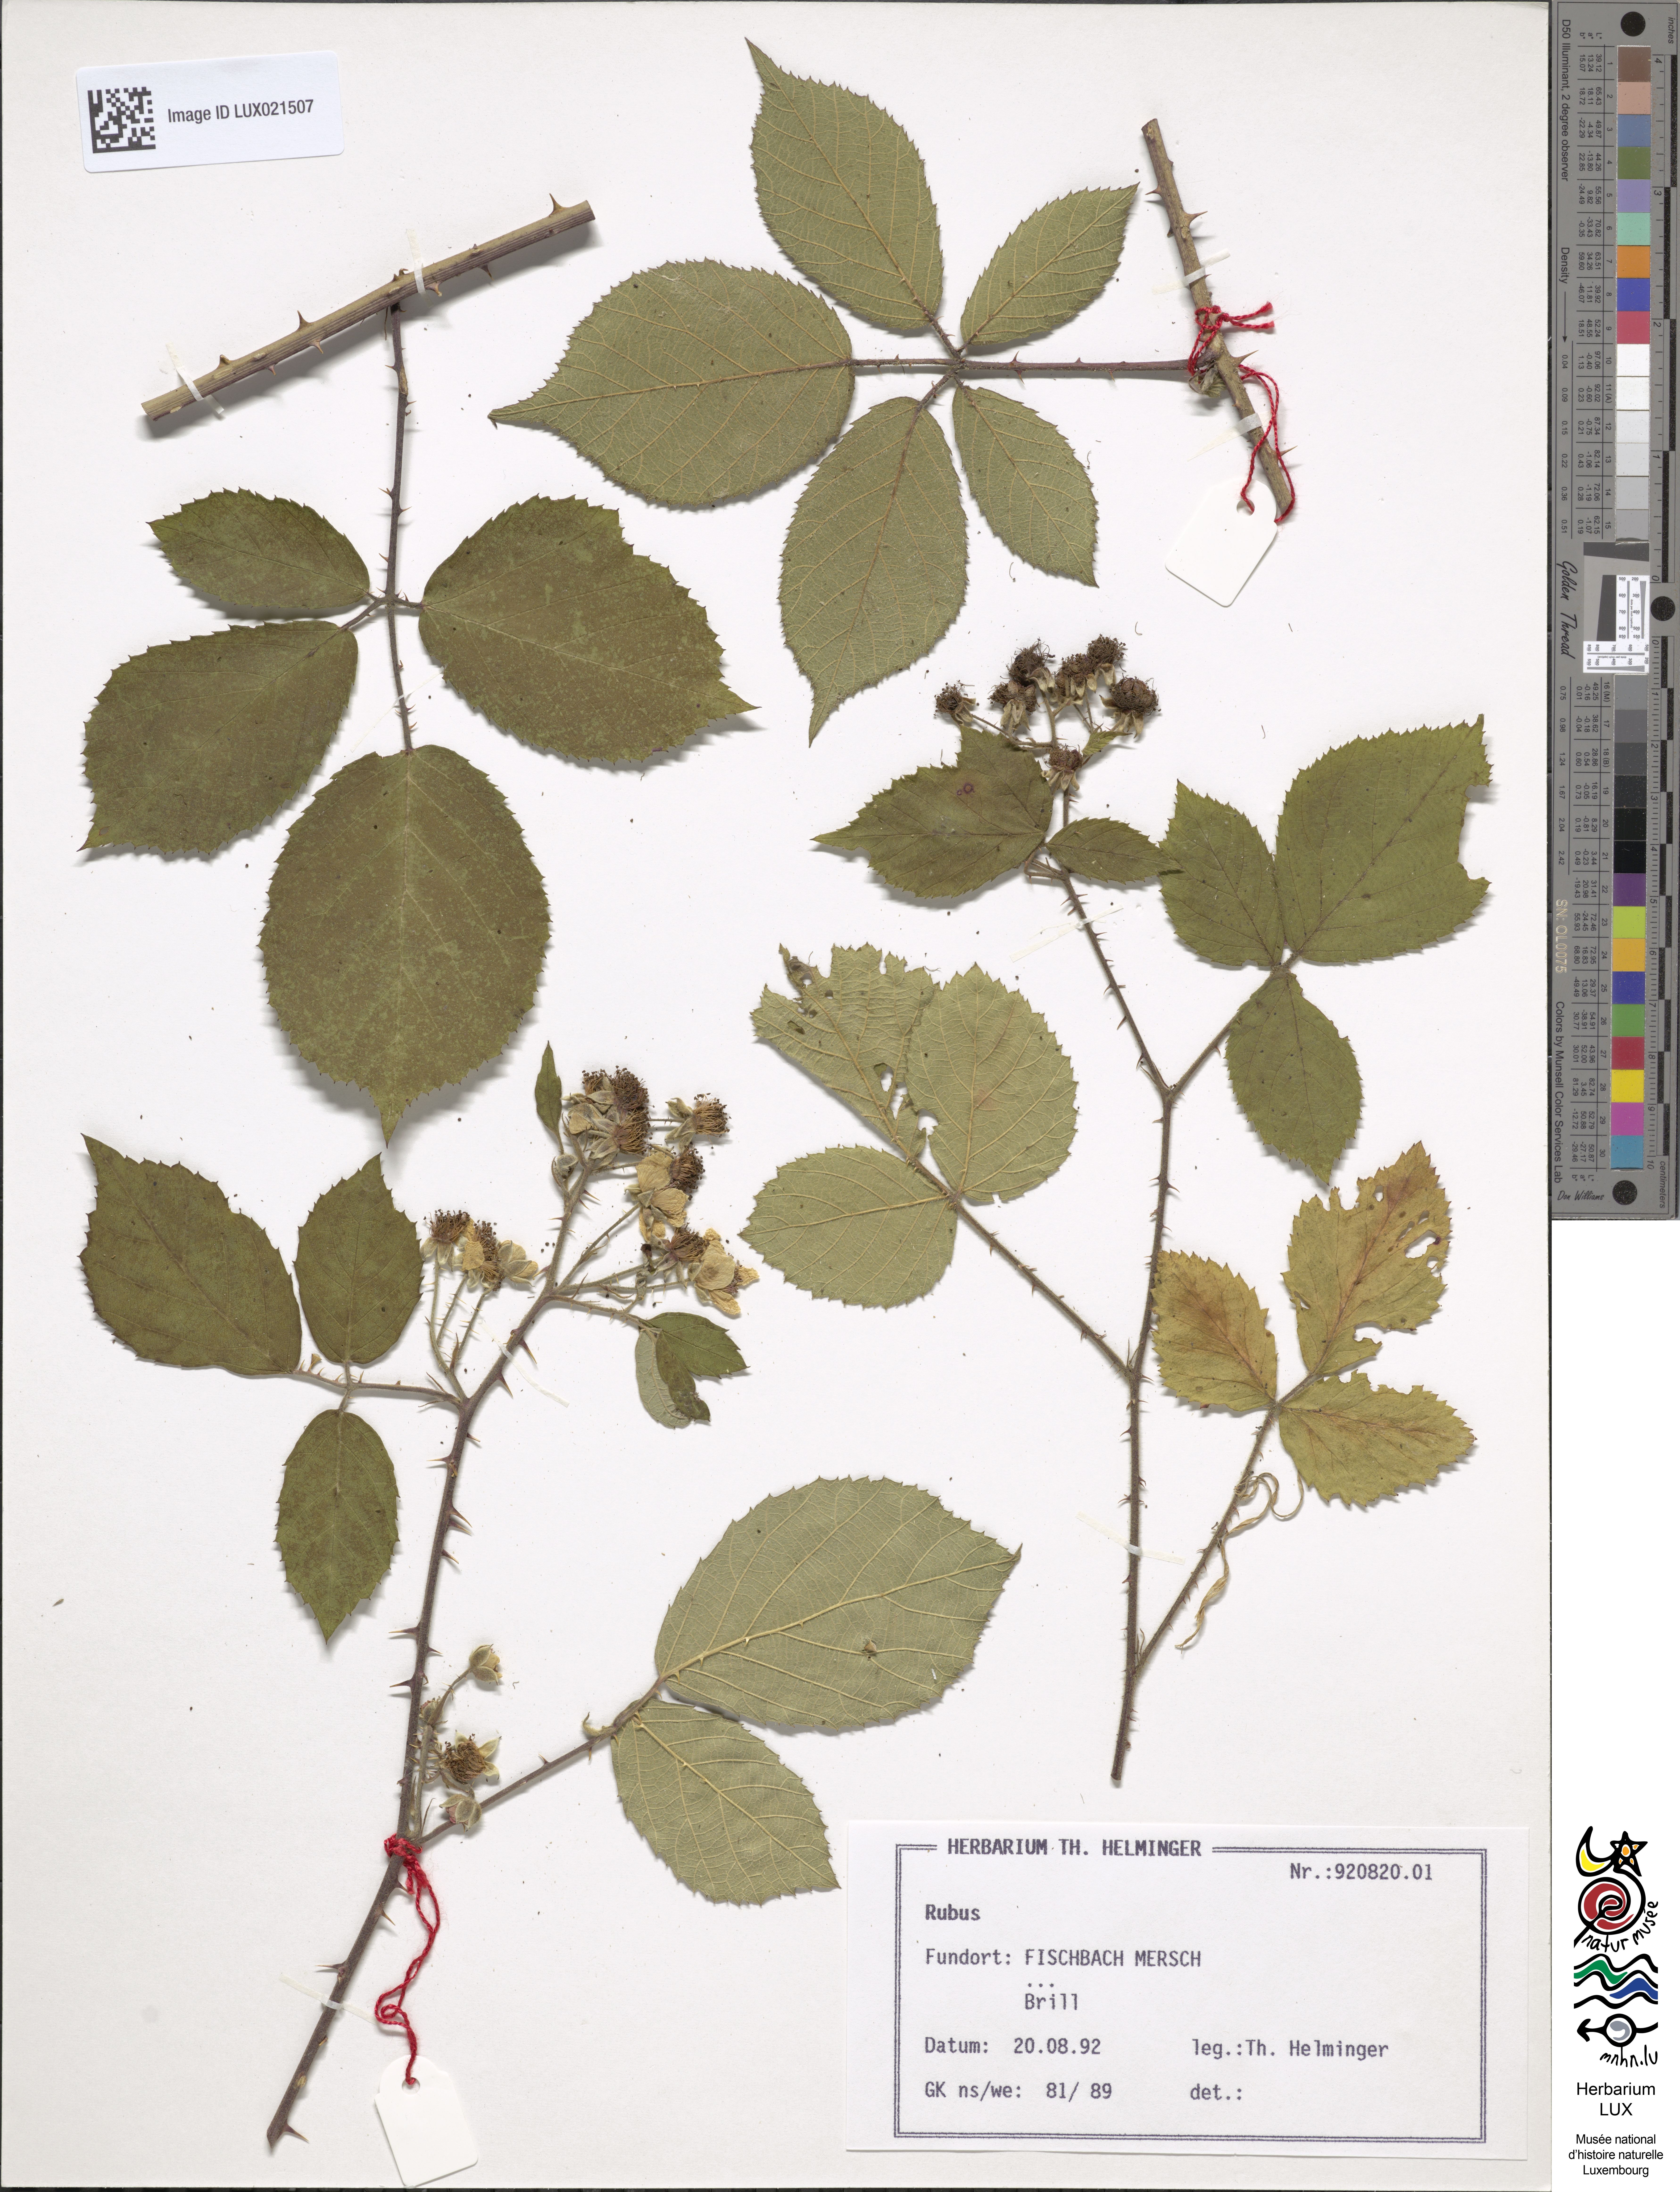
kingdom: Plantae
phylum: Tracheophyta
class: Magnoliopsida
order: Rosales
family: Rosaceae
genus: Rubus
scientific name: Rubus
